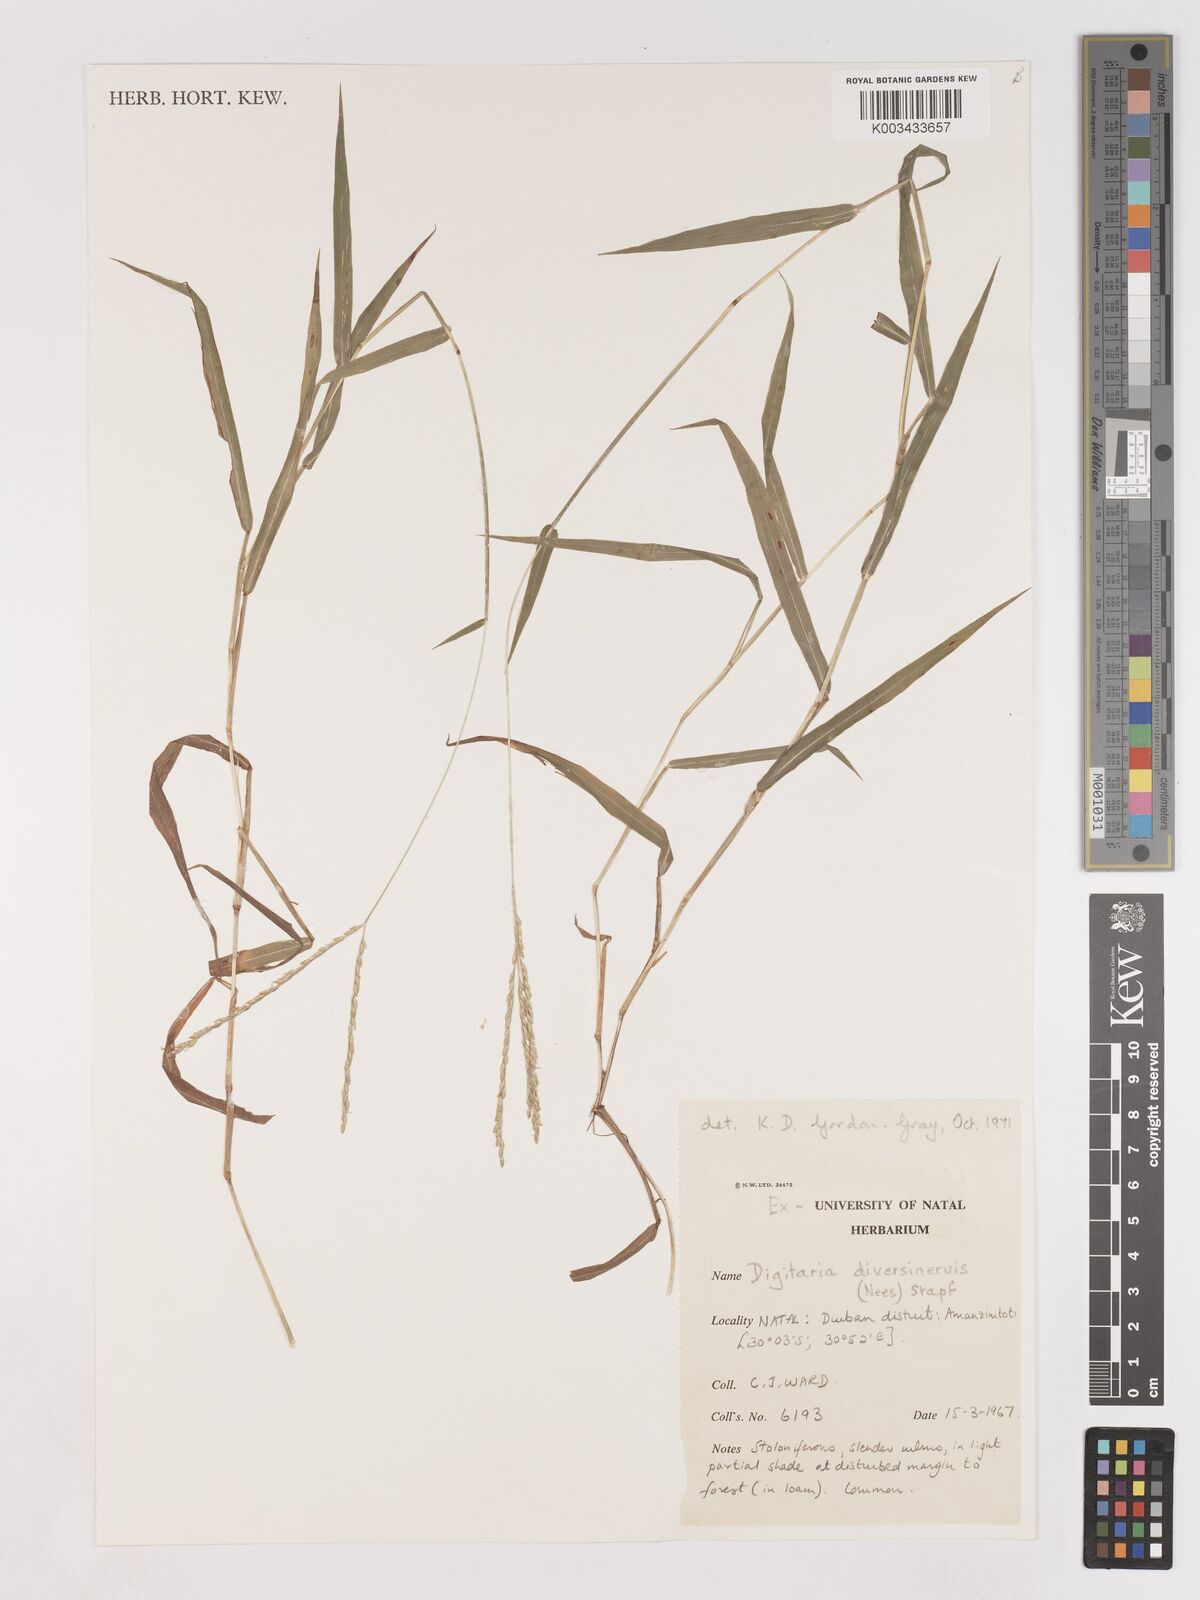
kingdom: Plantae
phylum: Tracheophyta
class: Liliopsida
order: Poales
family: Poaceae
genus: Digitaria
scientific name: Digitaria diversinervis
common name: Richmond finger grass
